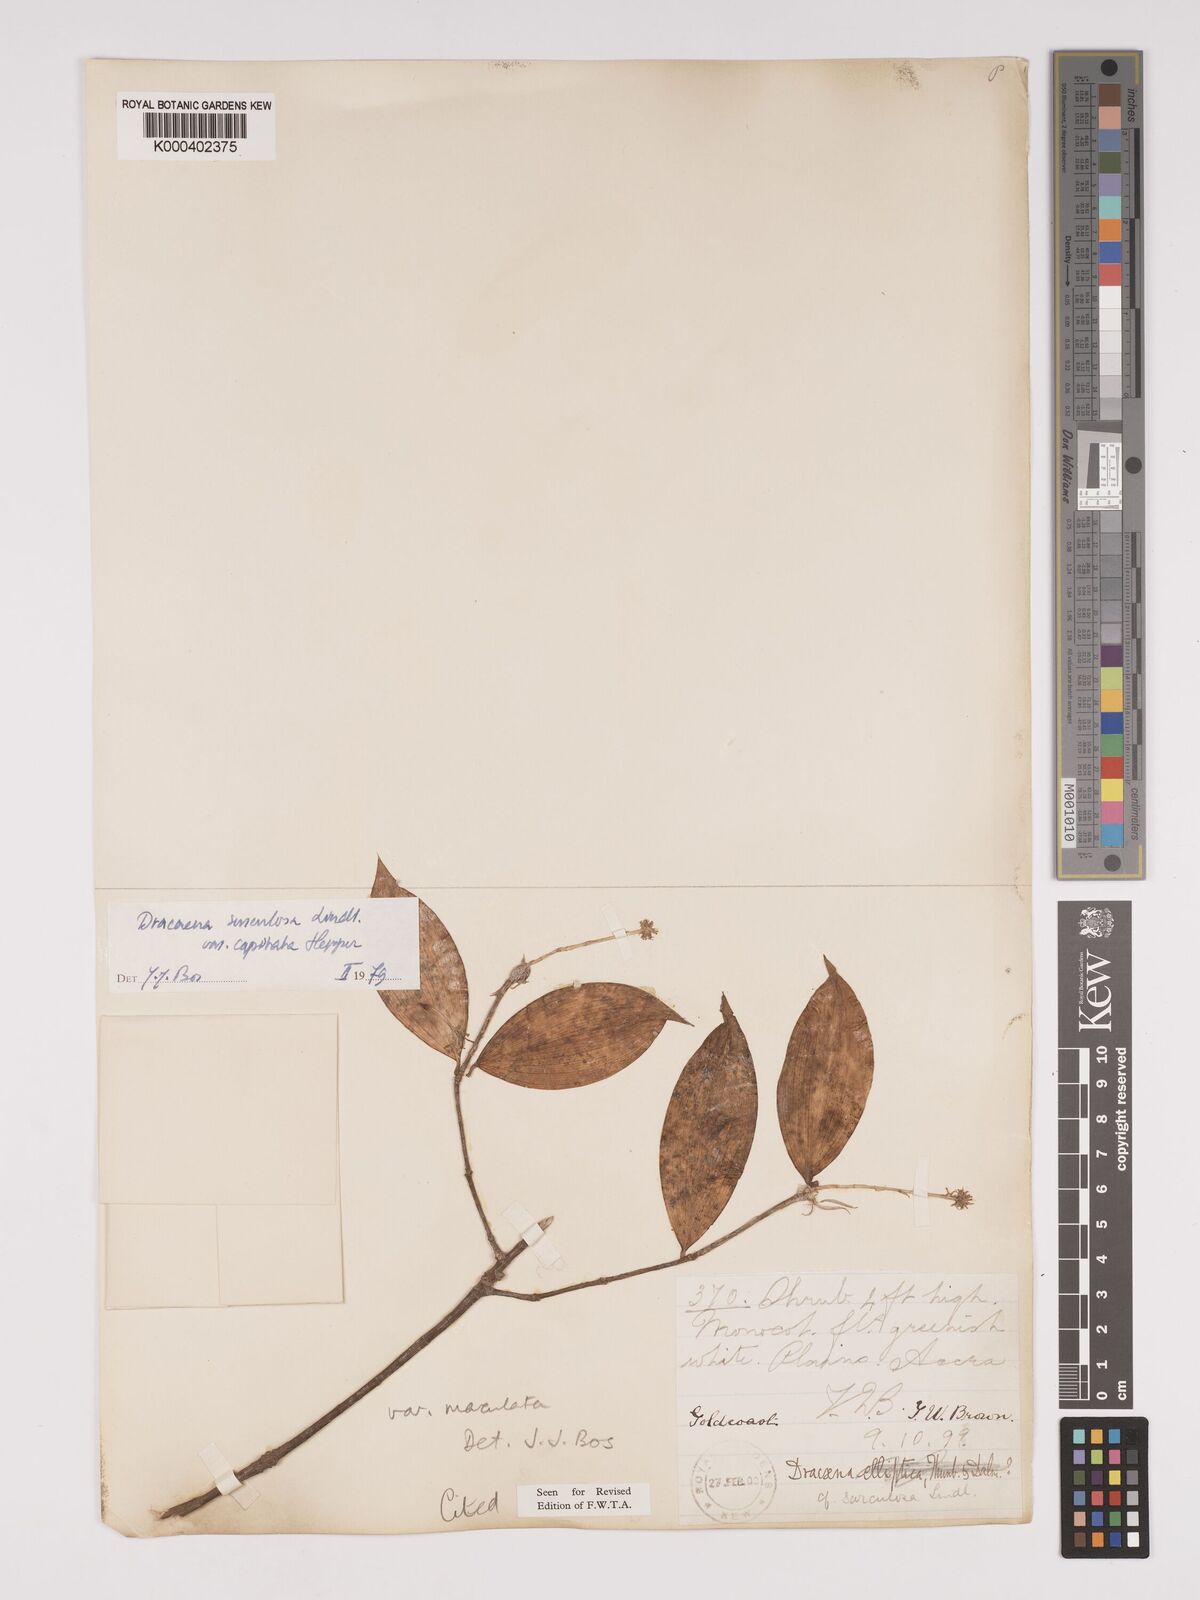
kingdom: Plantae
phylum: Tracheophyta
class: Liliopsida
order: Asparagales
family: Asparagaceae
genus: Dracaena
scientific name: Dracaena surculosa
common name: Spotted dracaena
